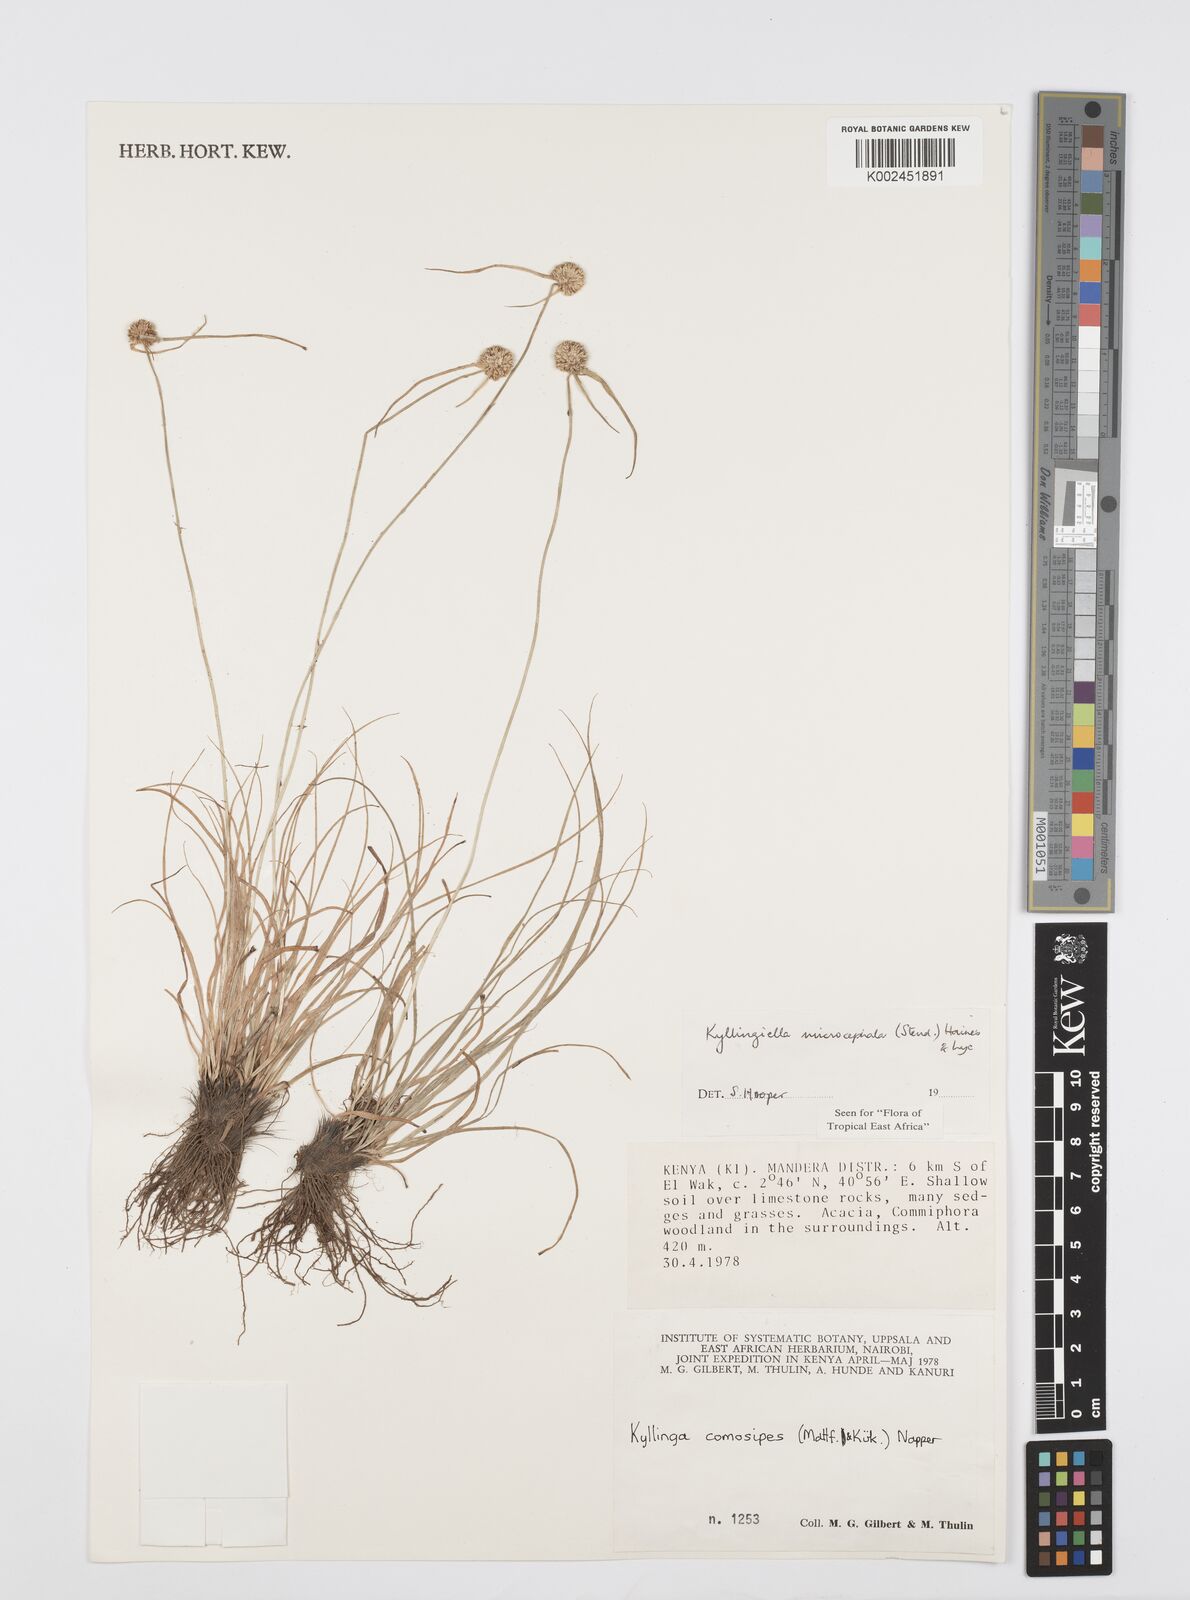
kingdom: Plantae
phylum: Tracheophyta
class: Liliopsida
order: Poales
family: Cyperaceae
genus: Cyperus
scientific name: Cyperus microcephalus
